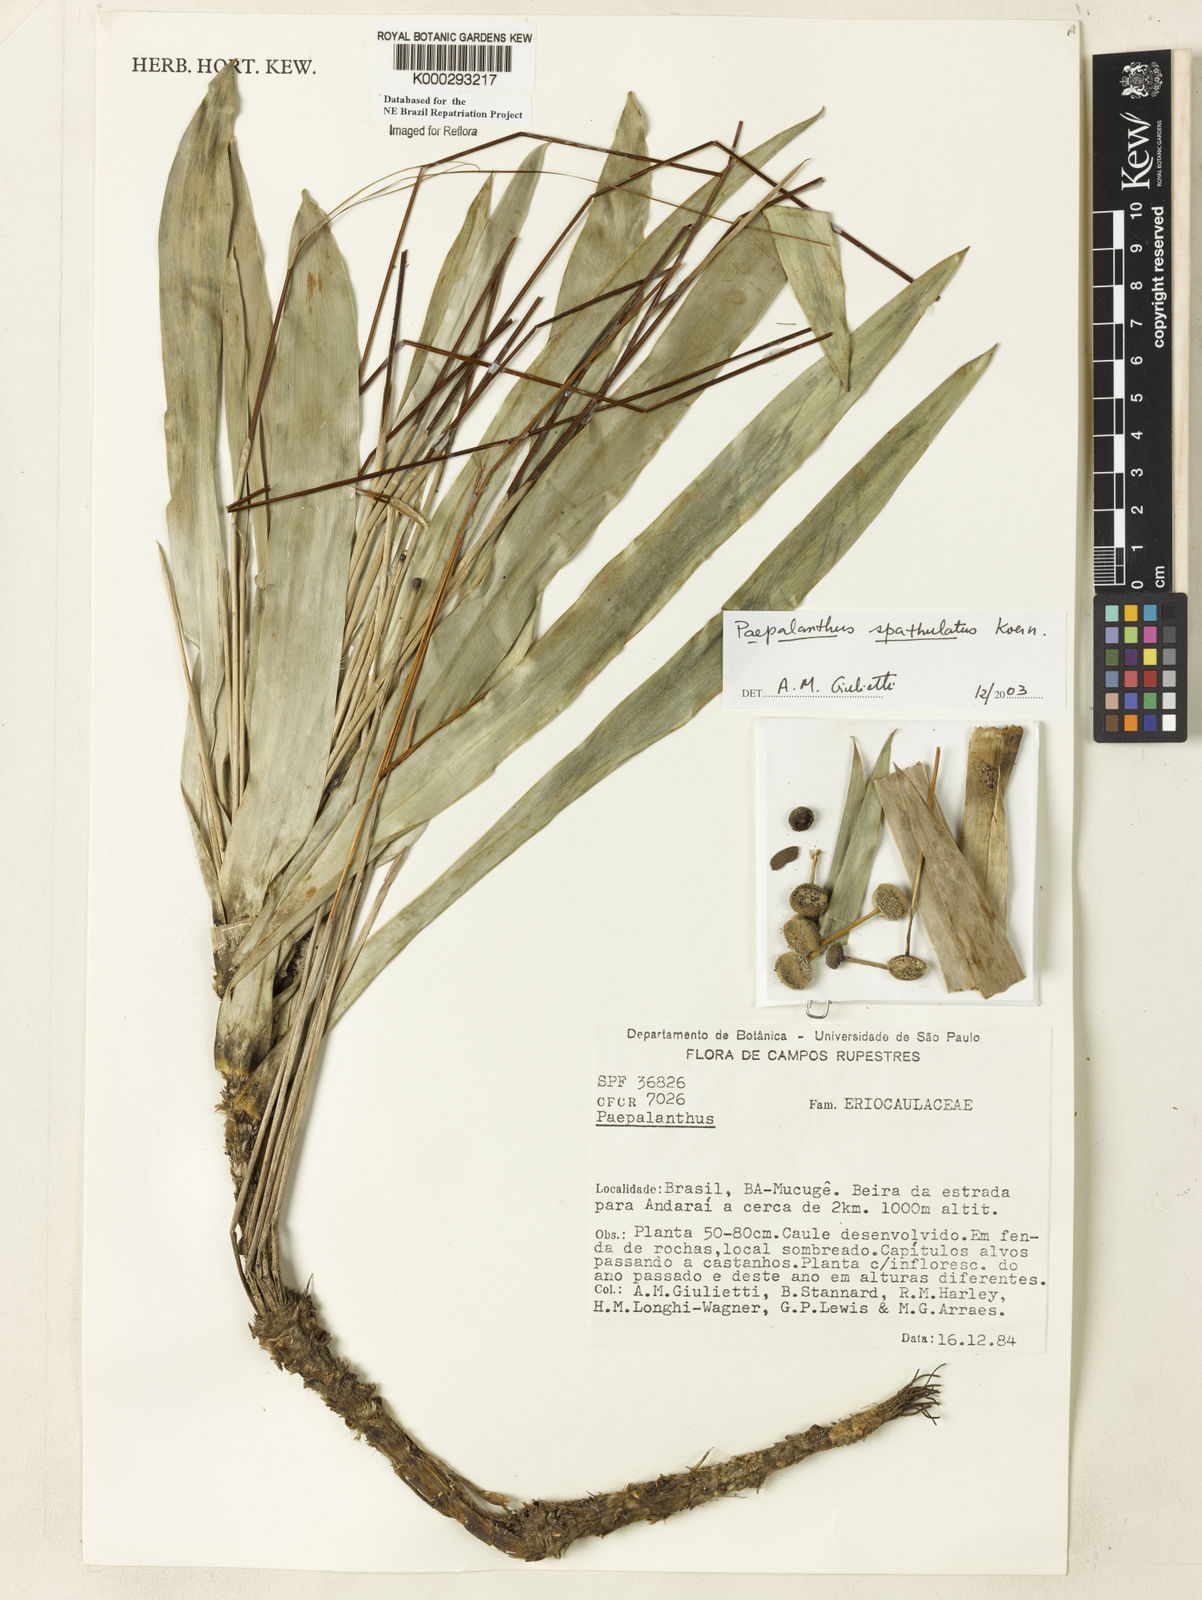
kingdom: Plantae
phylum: Tracheophyta
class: Liliopsida
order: Poales
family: Eriocaulaceae
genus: Paepalanthus
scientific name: Paepalanthus
